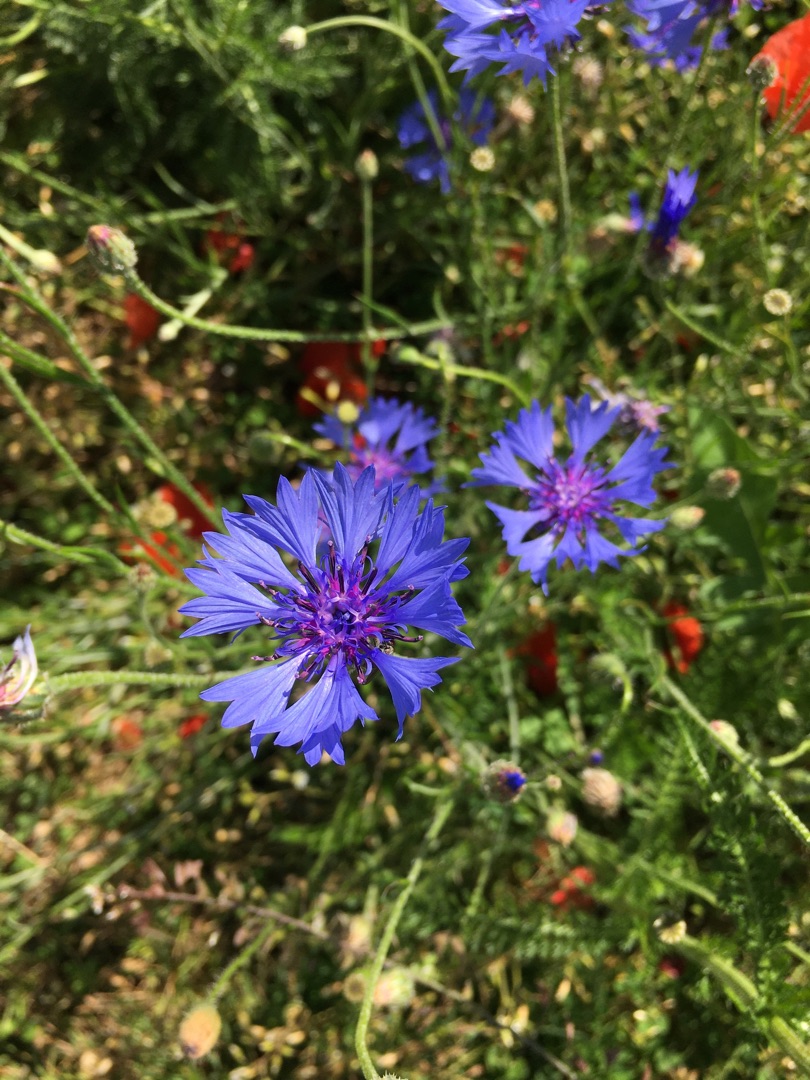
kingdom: Plantae
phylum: Tracheophyta
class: Magnoliopsida
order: Asterales
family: Asteraceae
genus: Centaurea
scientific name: Centaurea cyanus
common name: Kornblomst
